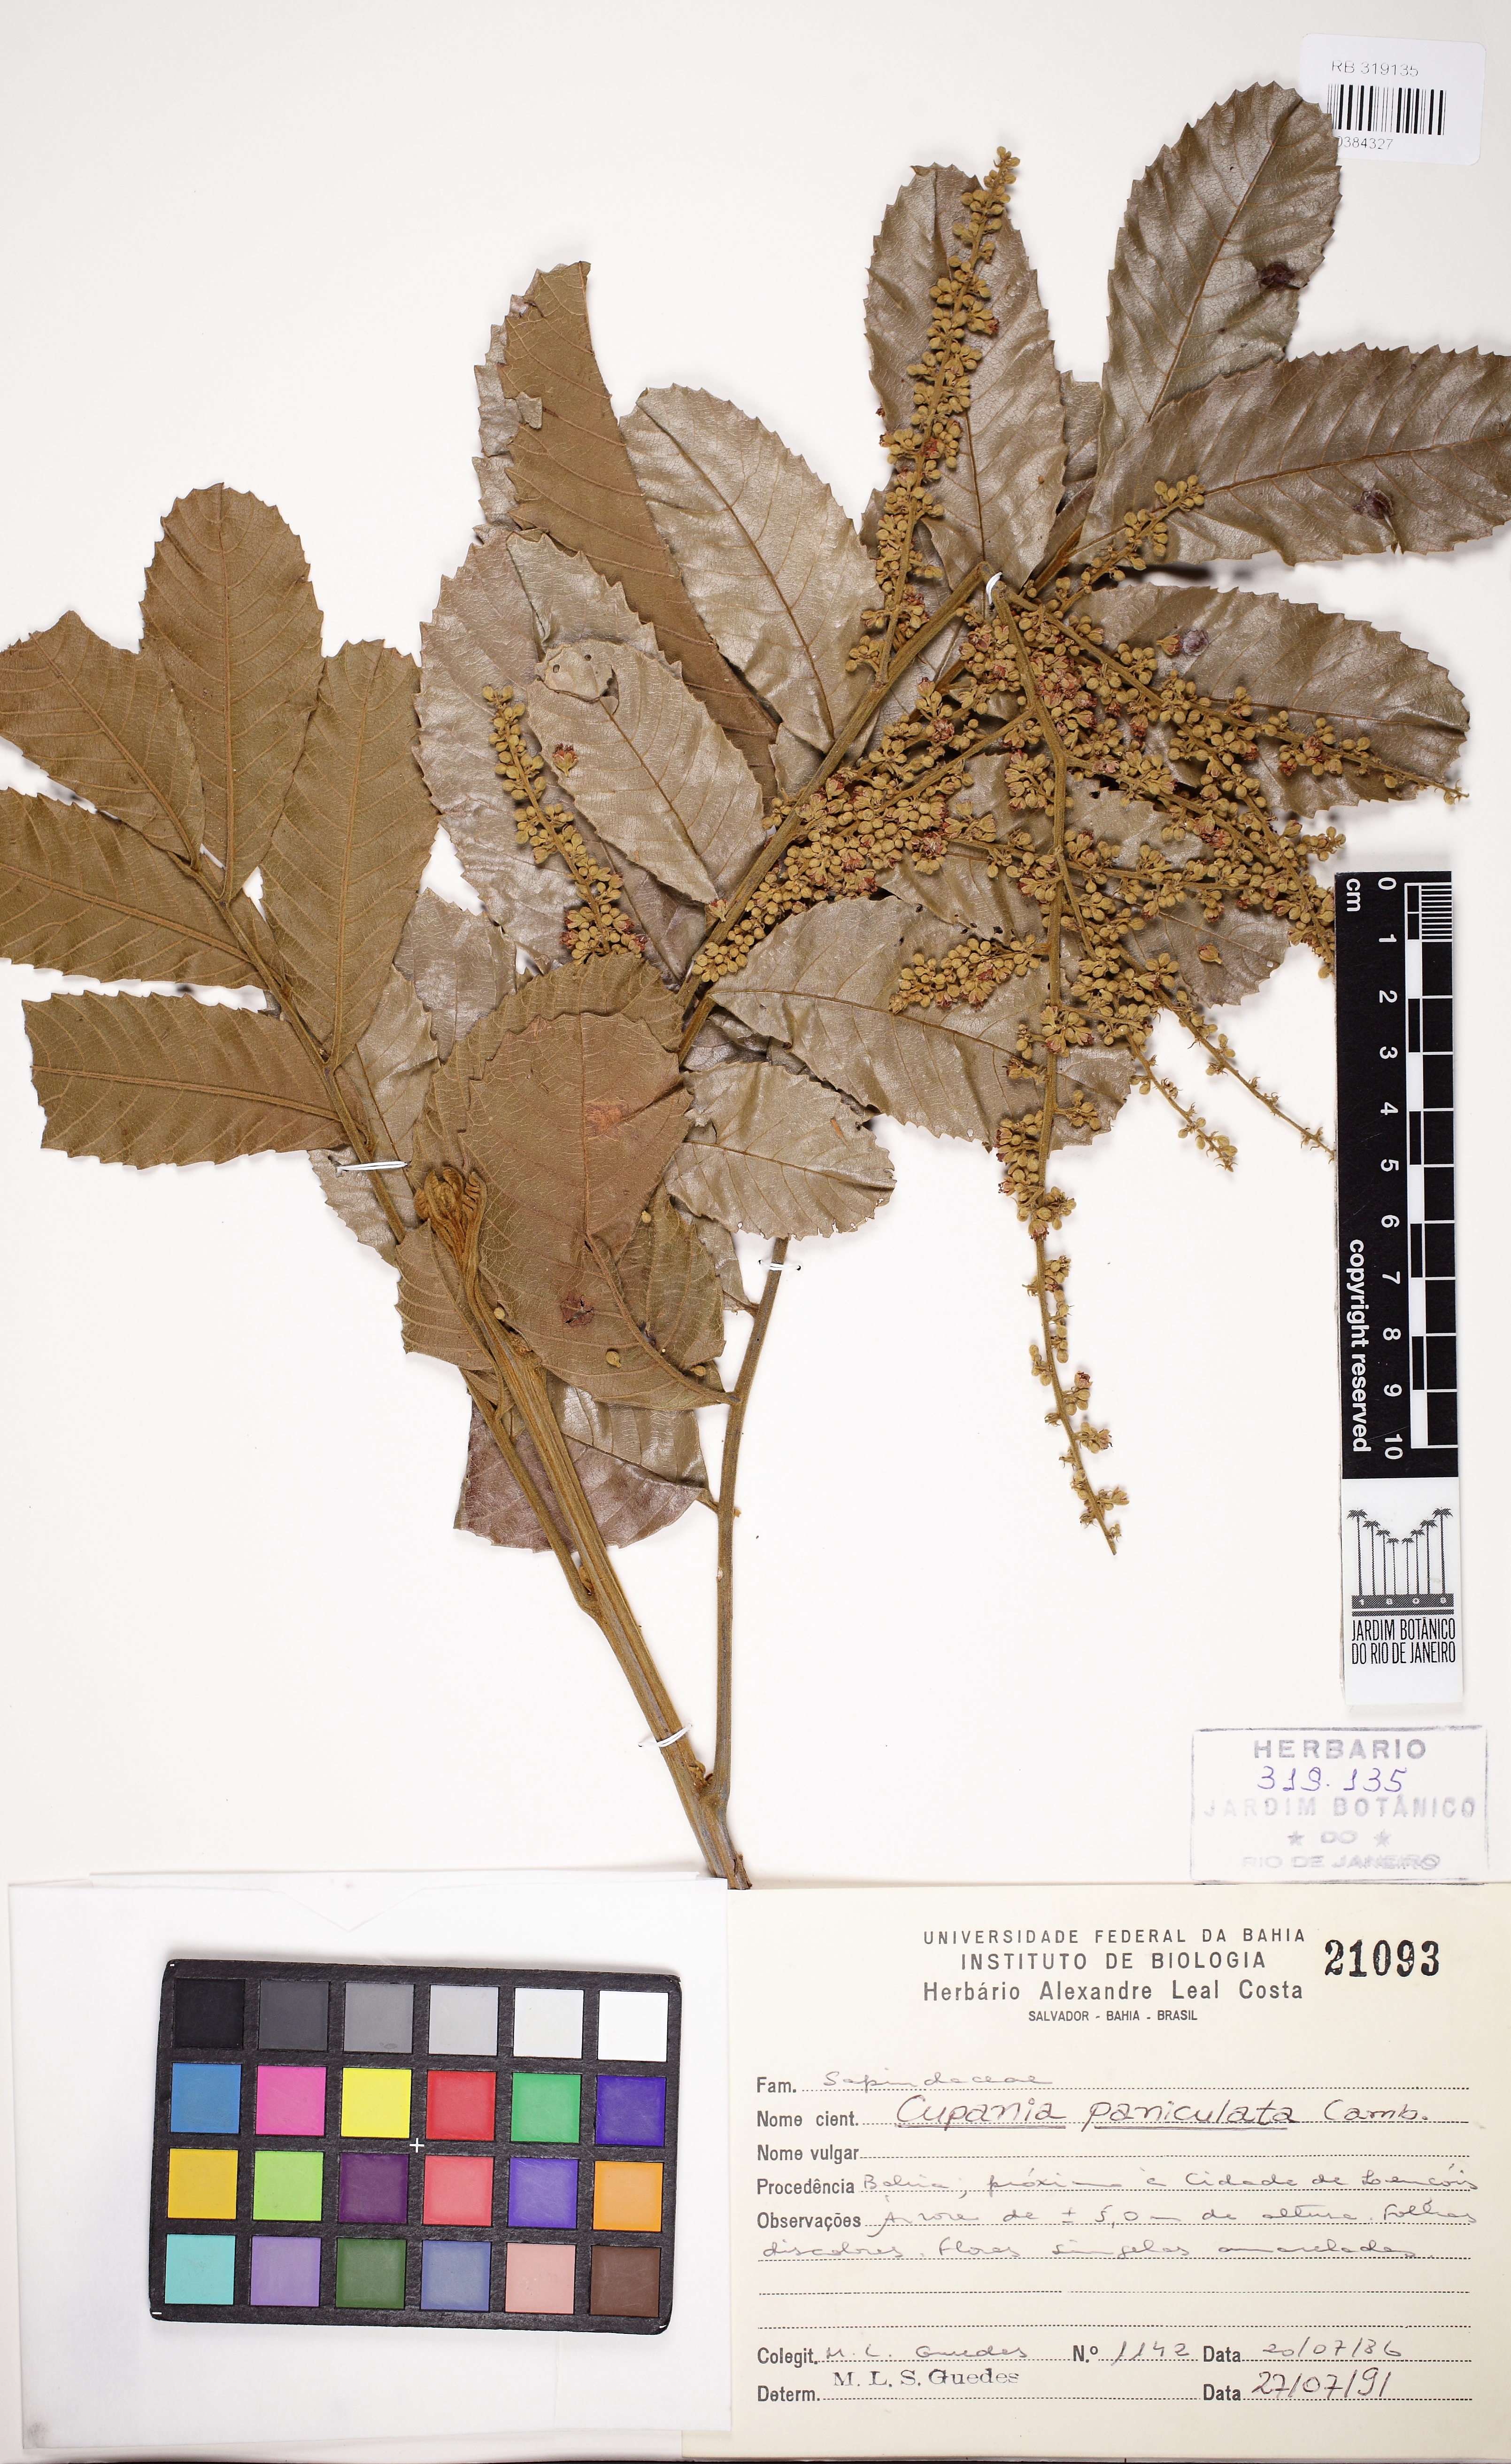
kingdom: Plantae
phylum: Tracheophyta
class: Magnoliopsida
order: Sapindales
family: Sapindaceae
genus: Cupania
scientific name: Cupania paniculata
